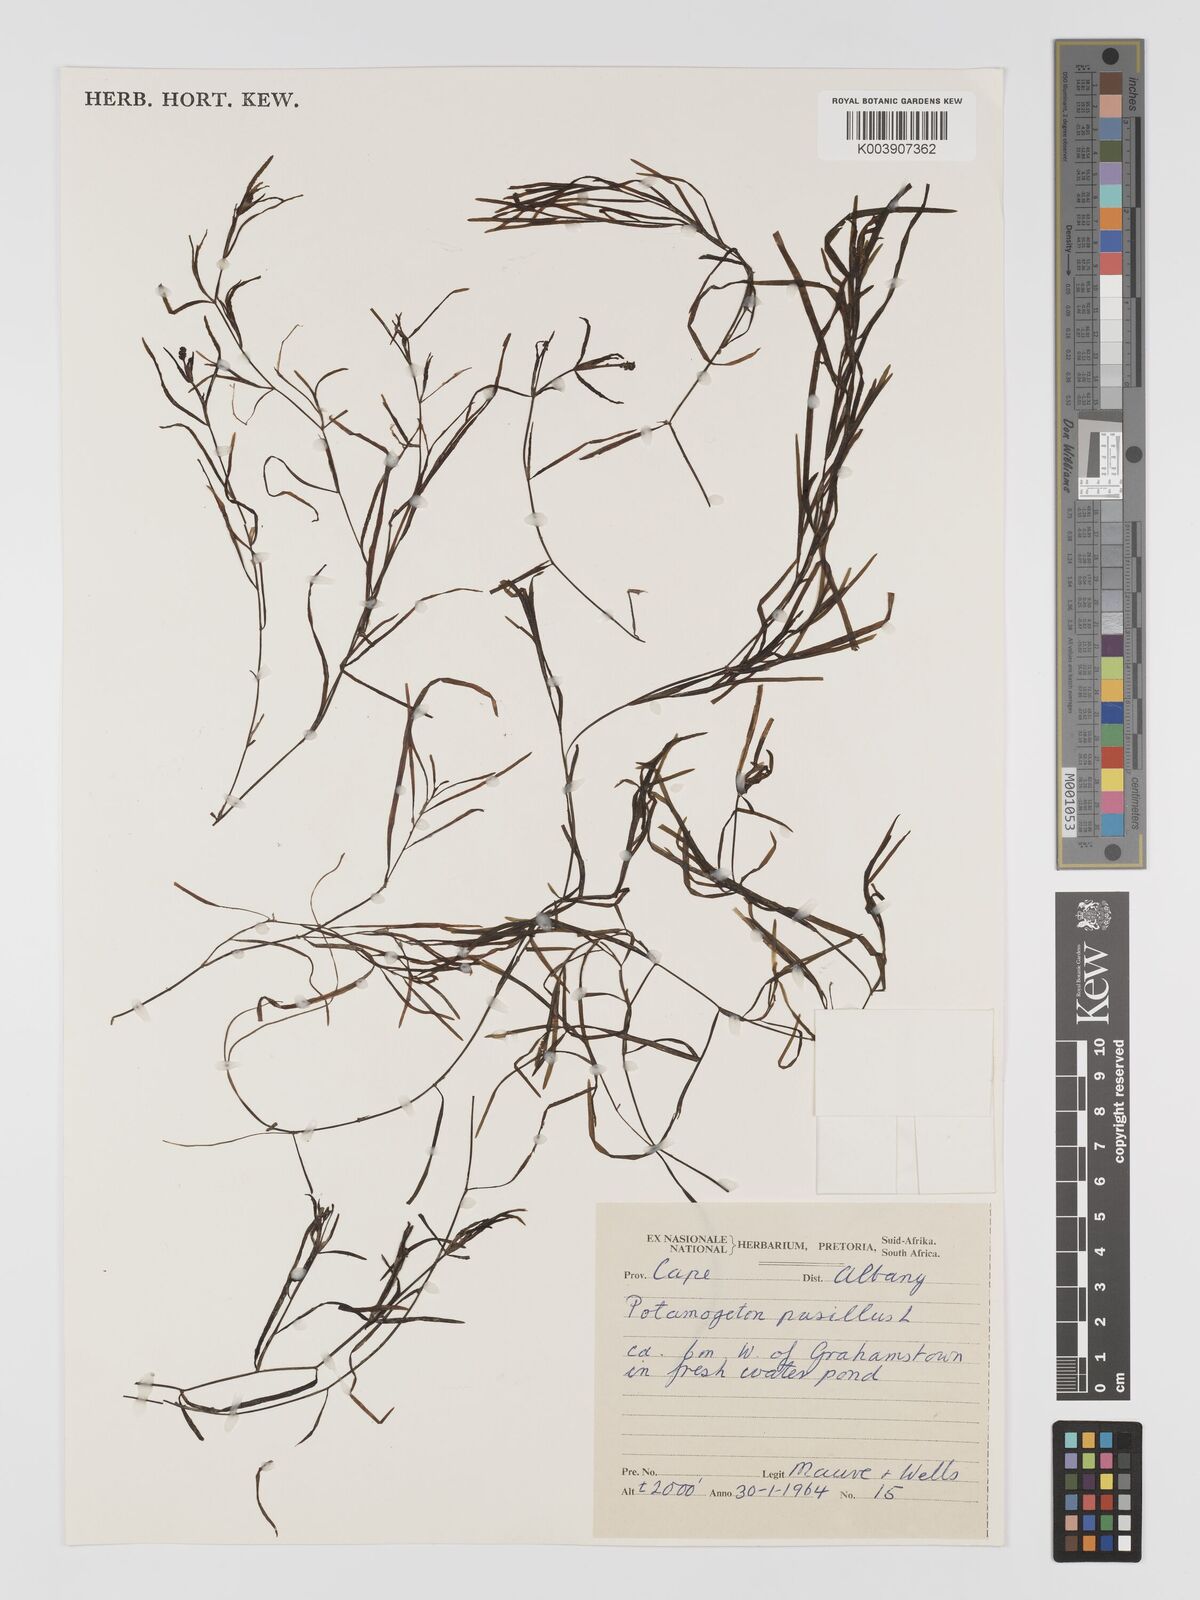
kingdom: Plantae
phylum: Tracheophyta
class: Liliopsida
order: Alismatales
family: Potamogetonaceae
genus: Potamogeton
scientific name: Potamogeton pusillus
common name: Lesser pondweed
